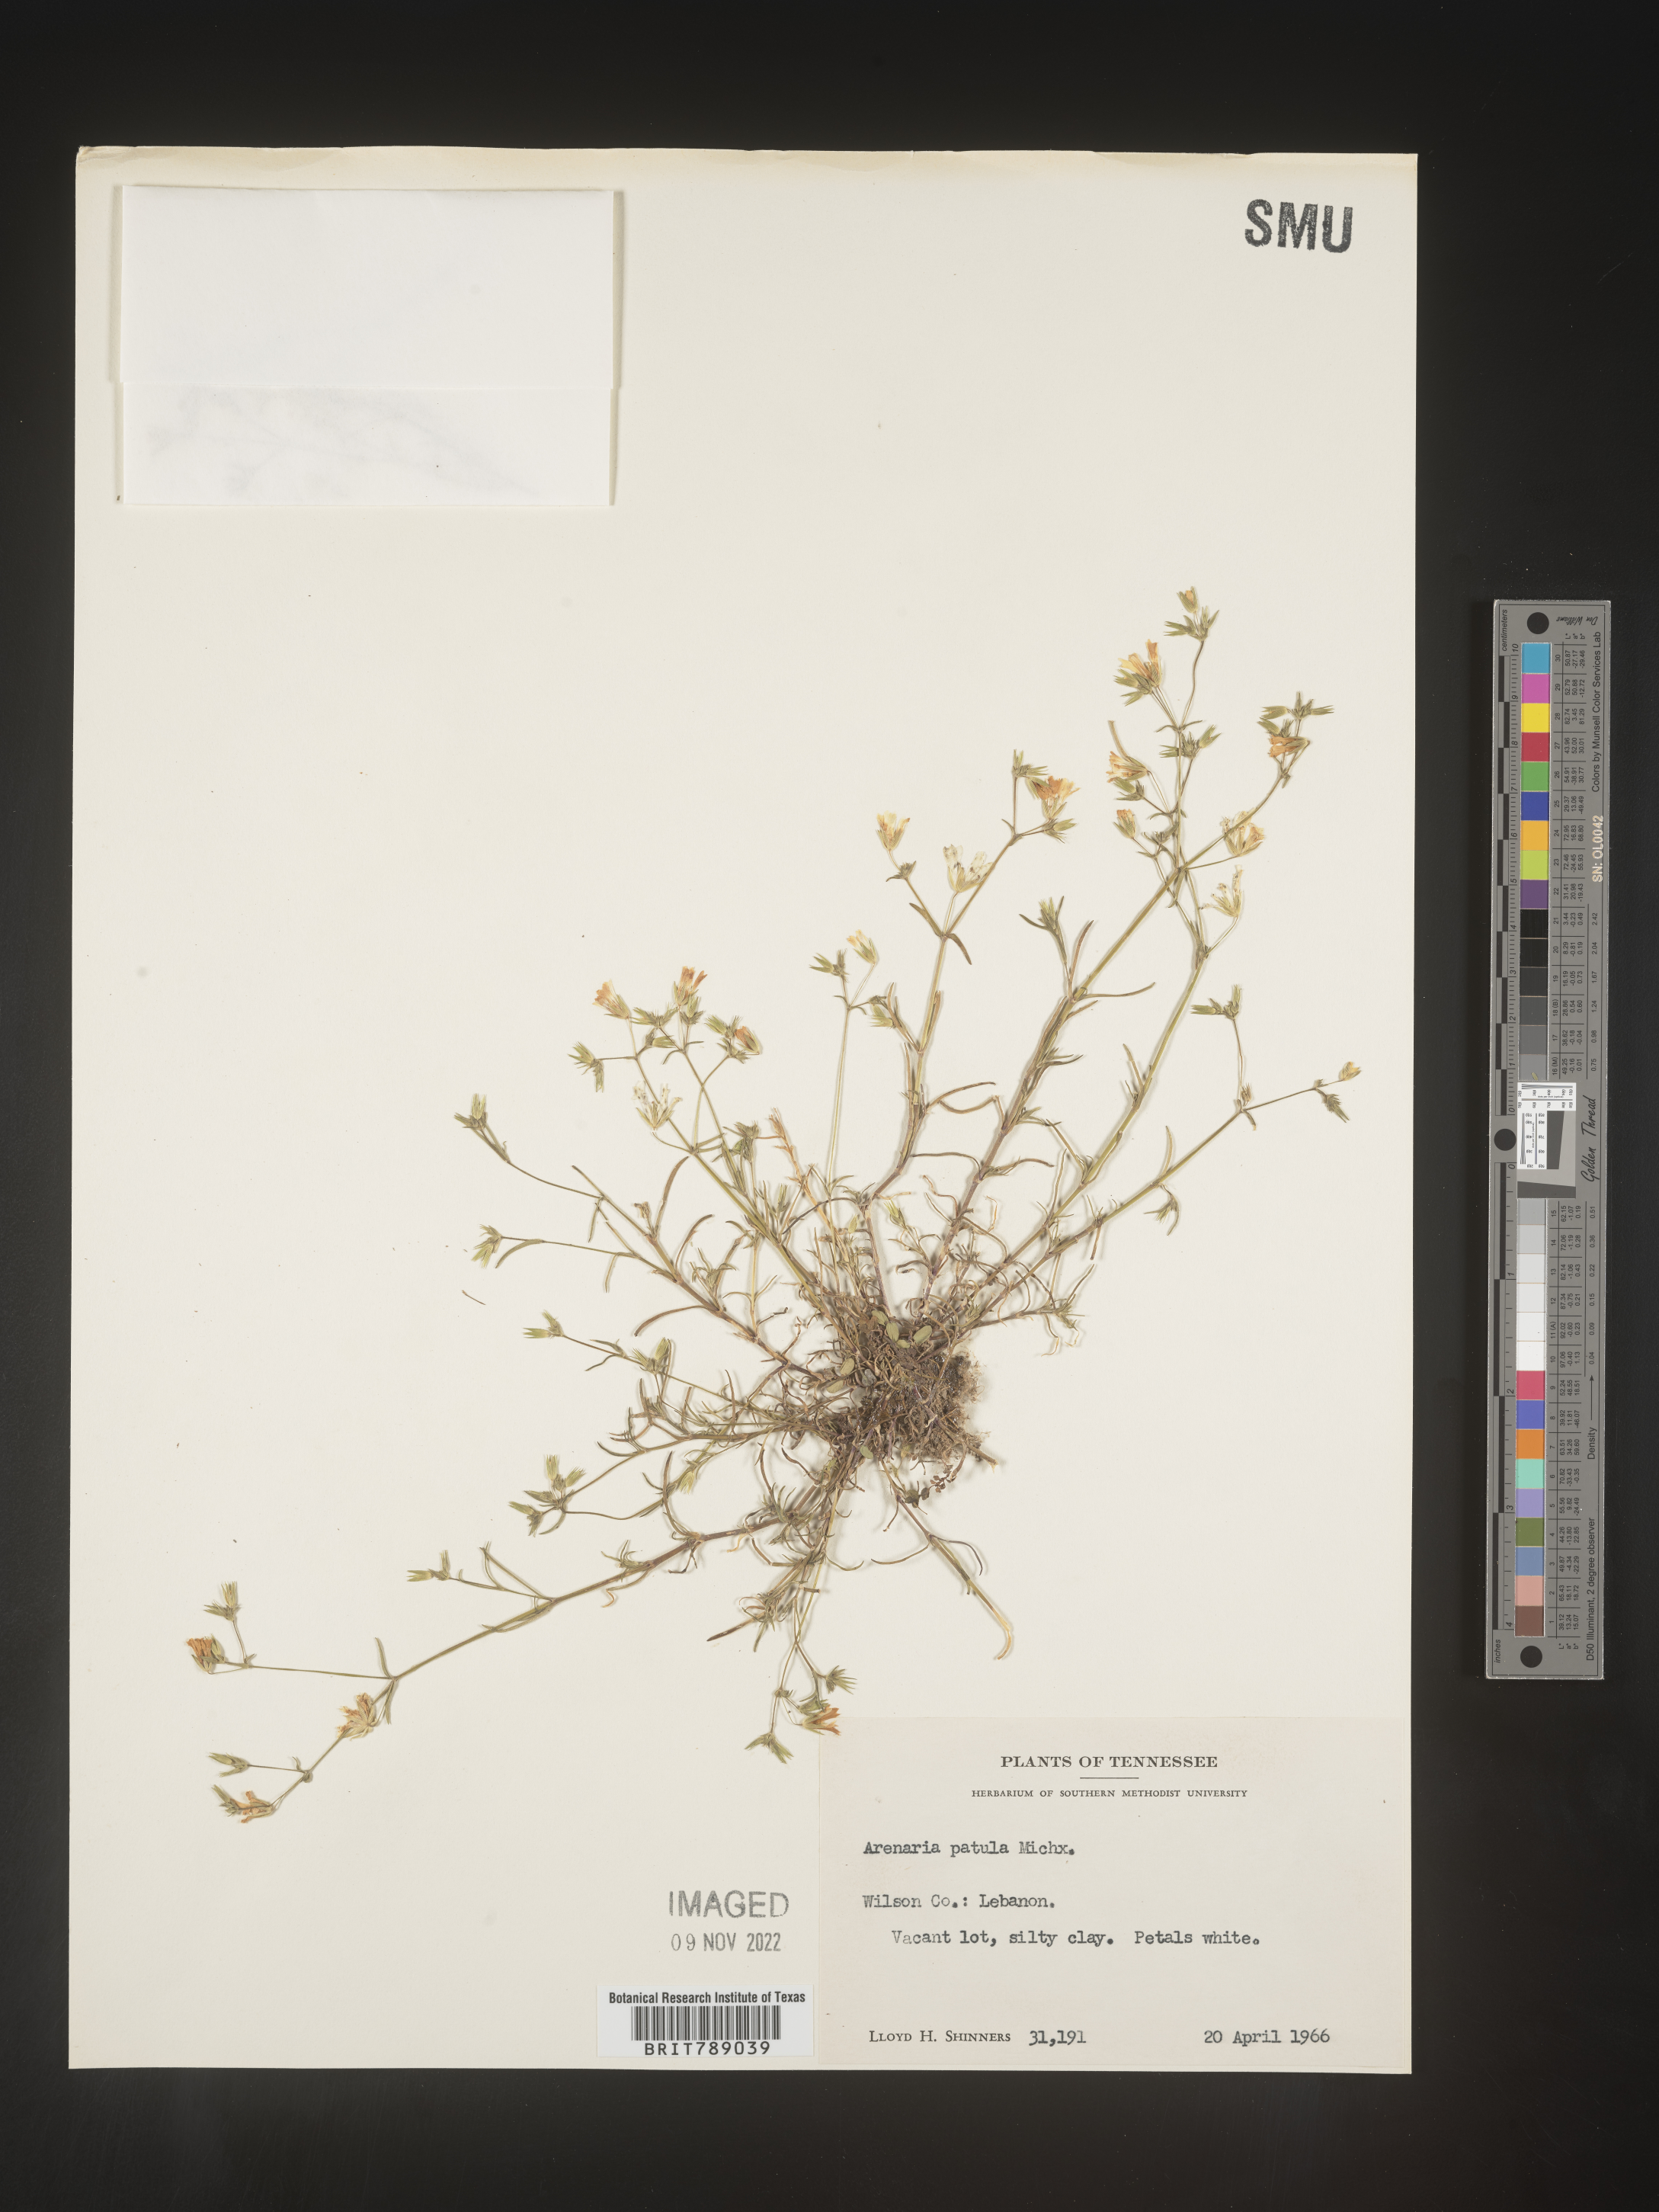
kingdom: Plantae
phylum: Tracheophyta
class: Magnoliopsida
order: Caryophyllales
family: Caryophyllaceae
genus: Mononeuria
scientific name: Mononeuria patula
